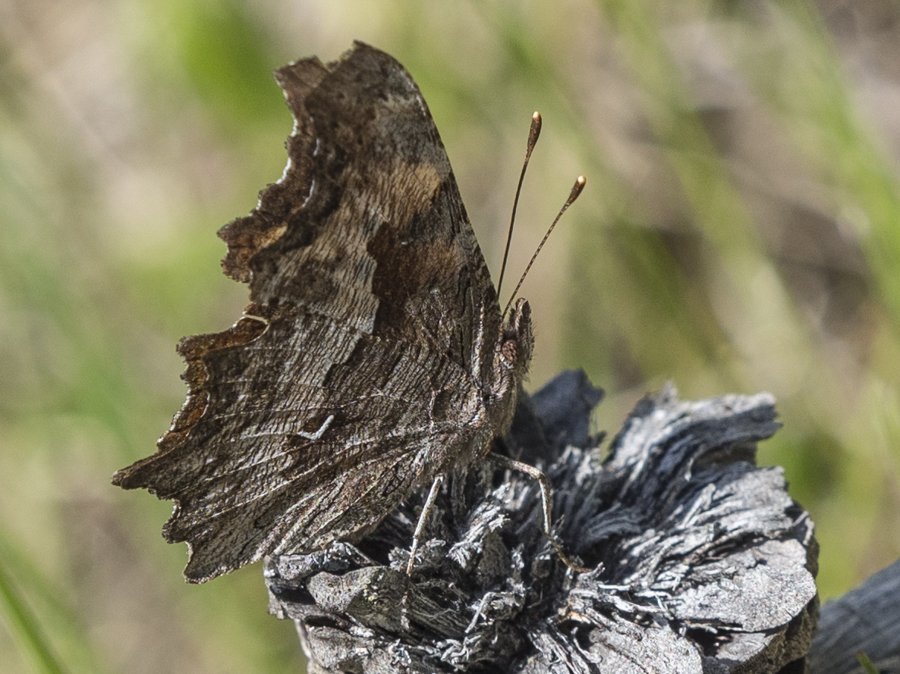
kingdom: Animalia
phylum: Arthropoda
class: Insecta
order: Lepidoptera
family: Nymphalidae
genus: Polygonia
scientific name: Polygonia gracilis
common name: Hoary Comma
